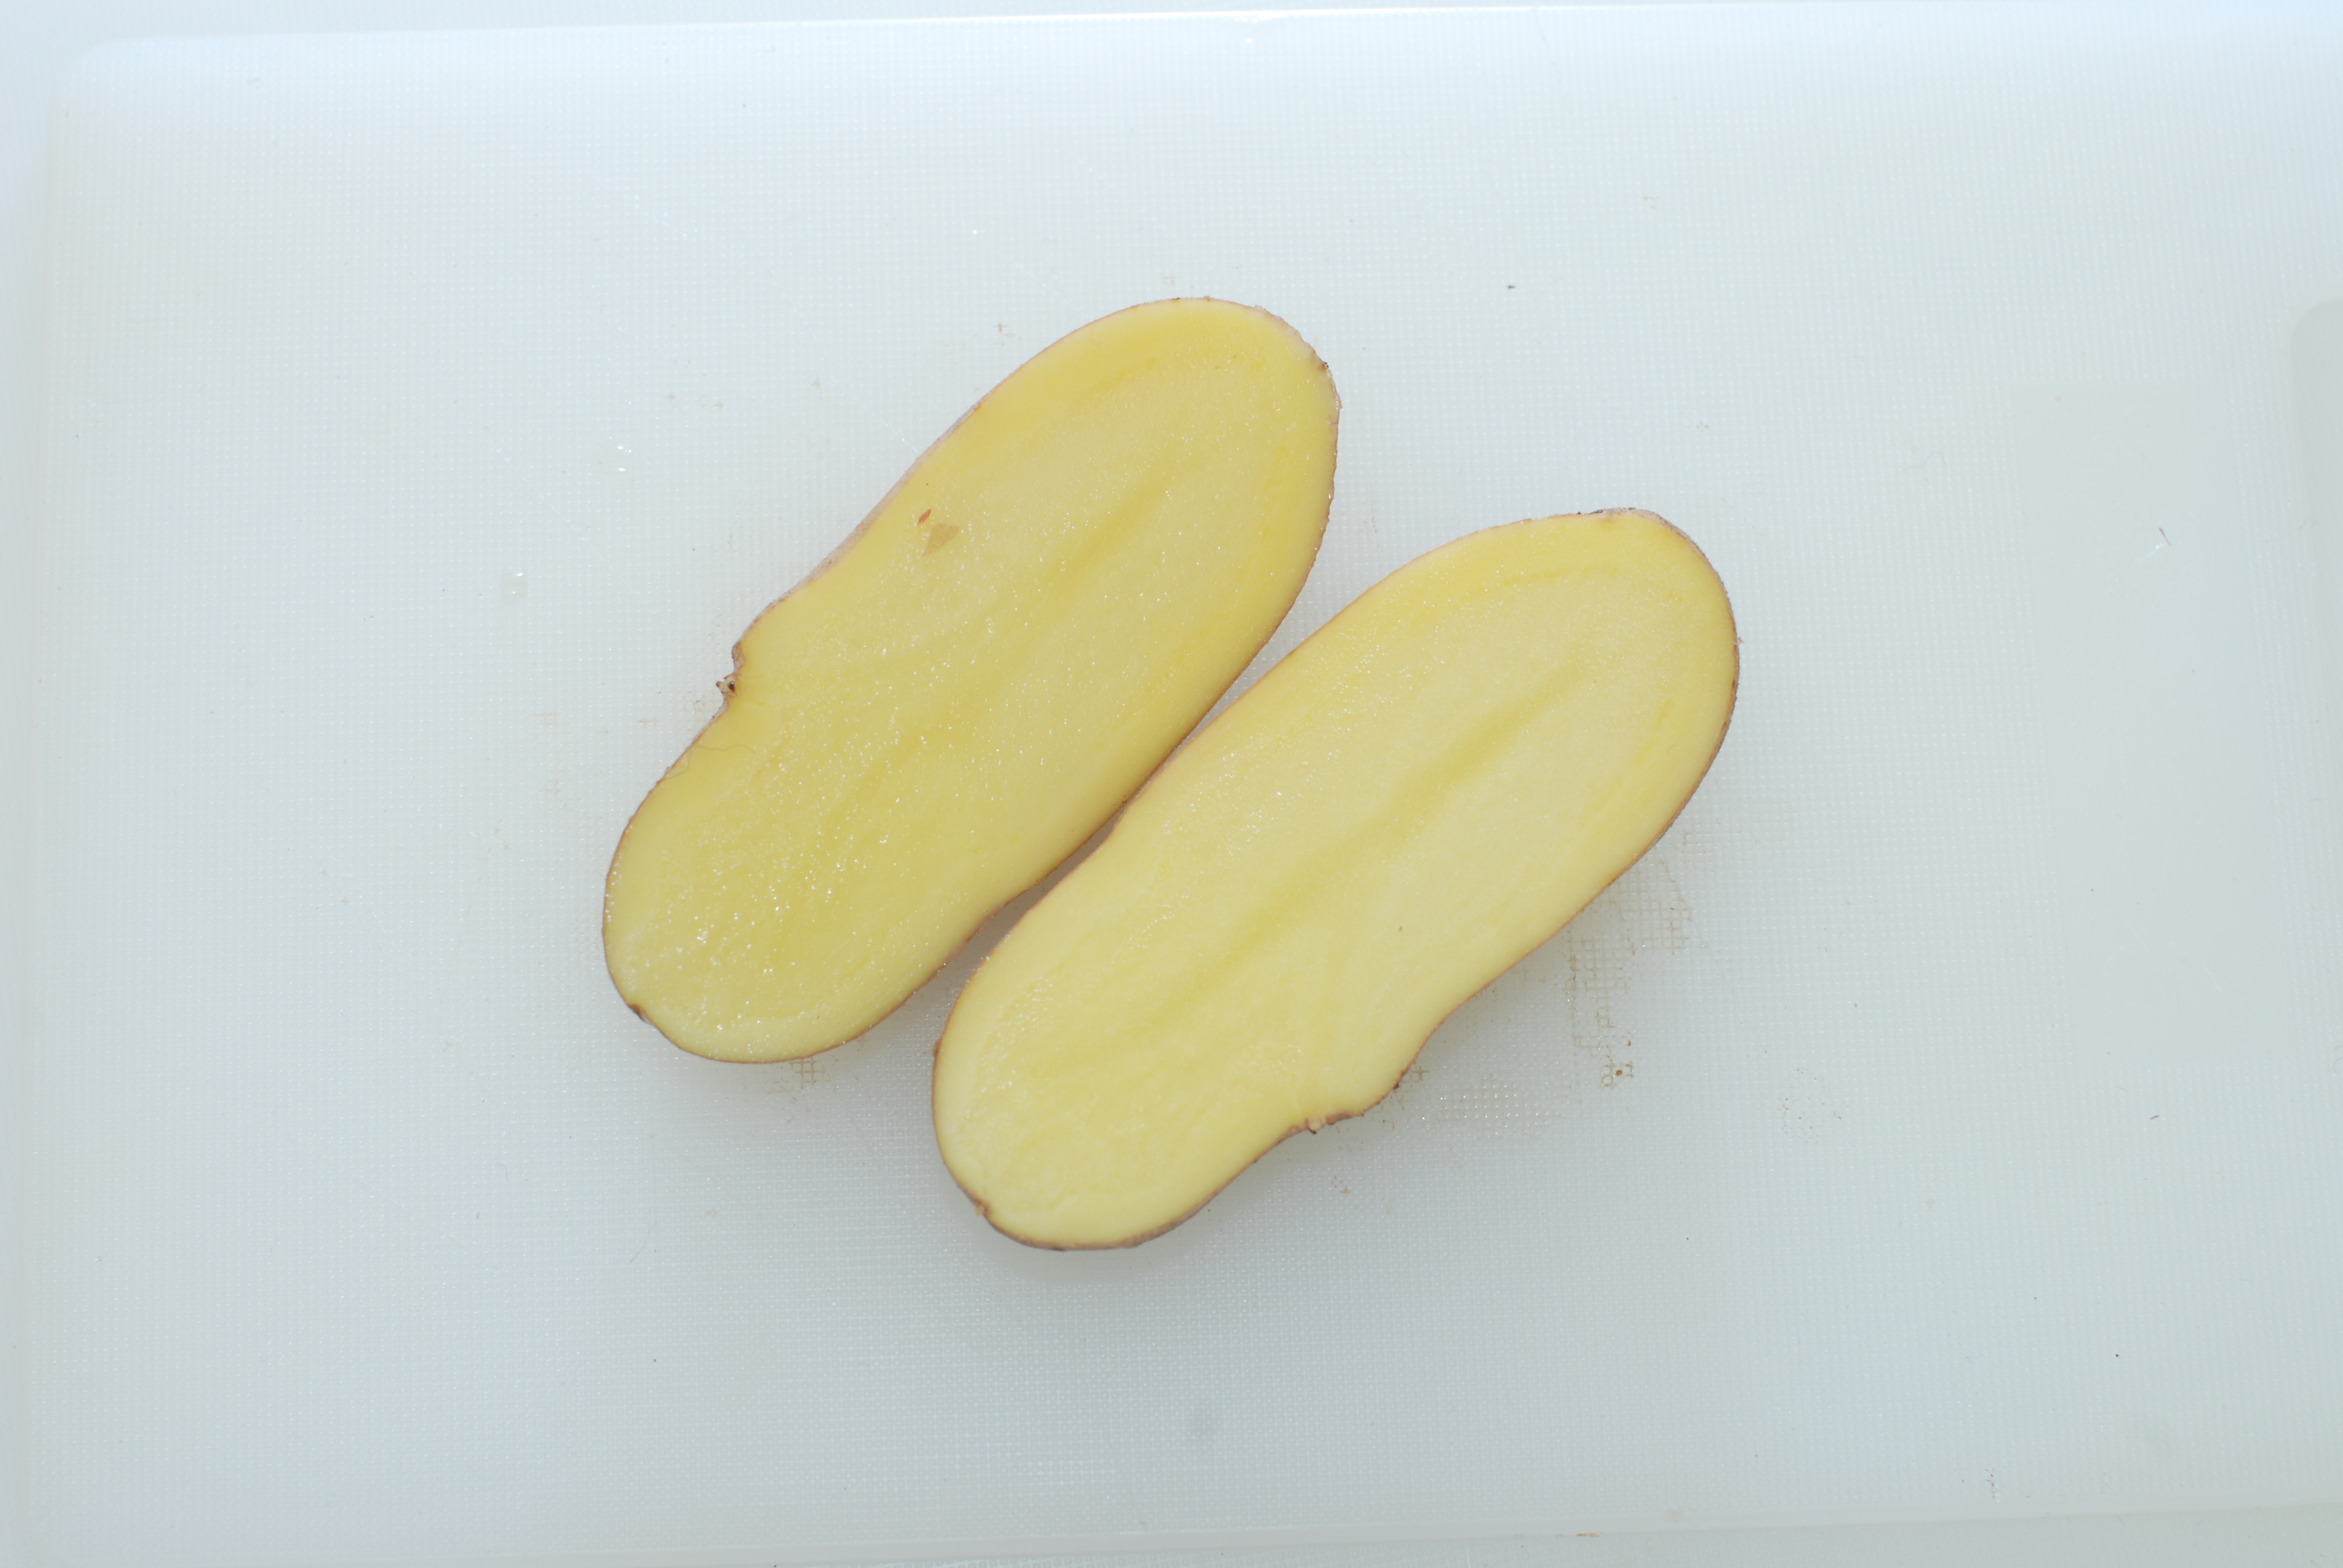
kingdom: Plantae
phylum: Tracheophyta
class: Magnoliopsida
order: Solanales
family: Solanaceae
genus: Solanum
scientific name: Solanum tuberosum
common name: Potato
